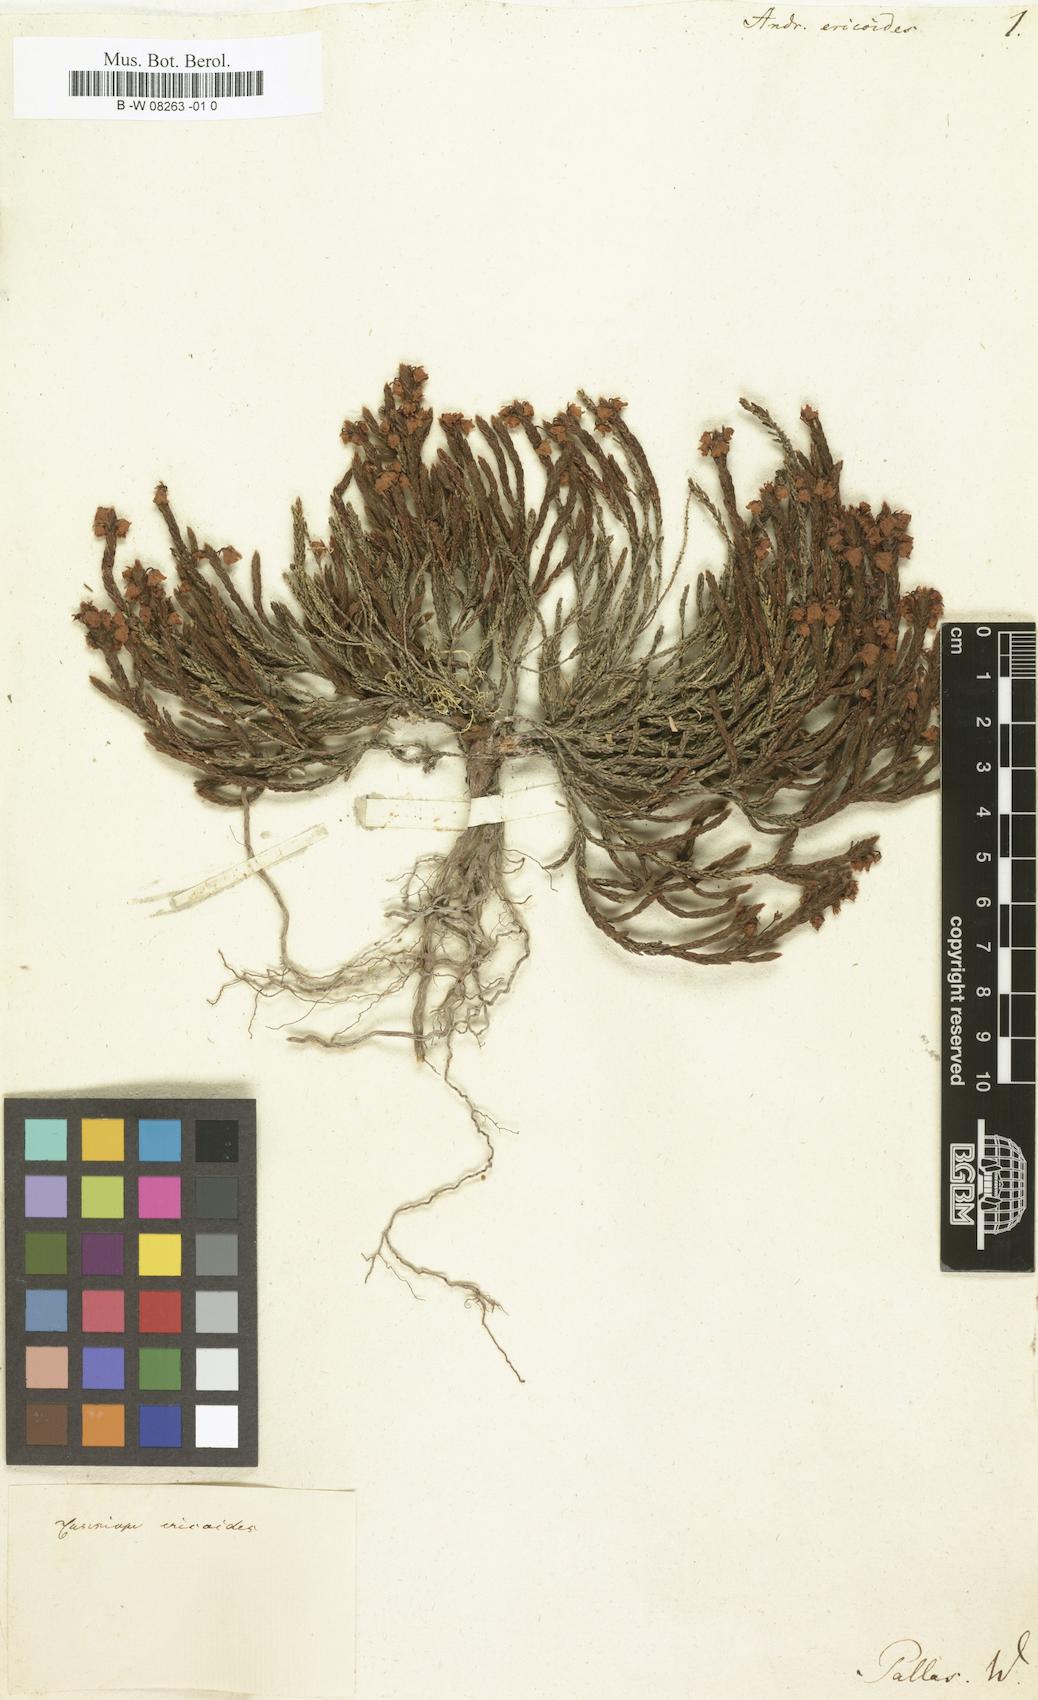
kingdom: Plantae
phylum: Tracheophyta
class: Magnoliopsida
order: Ericales
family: Ericaceae
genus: Cassiope
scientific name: Cassiope ericoides
